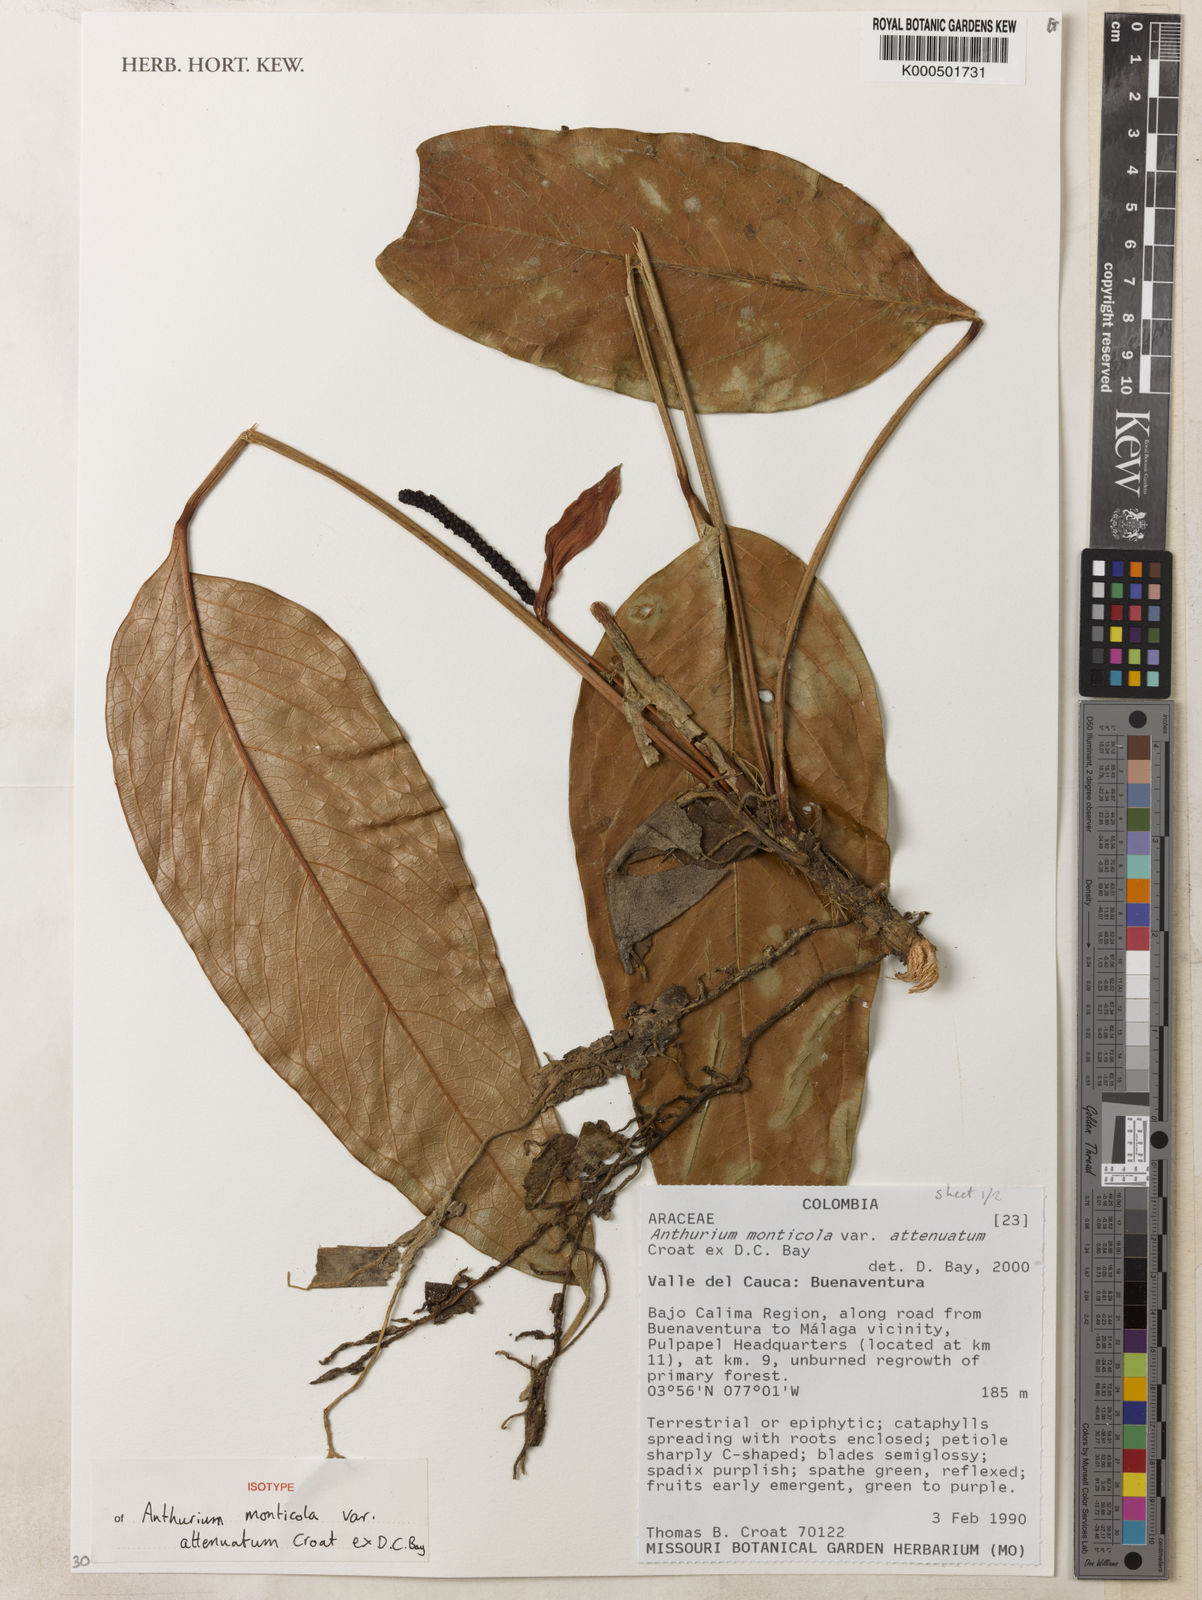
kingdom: Plantae
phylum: Tracheophyta
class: Liliopsida
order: Alismatales
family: Araceae
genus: Anthurium
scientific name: Anthurium monticola
